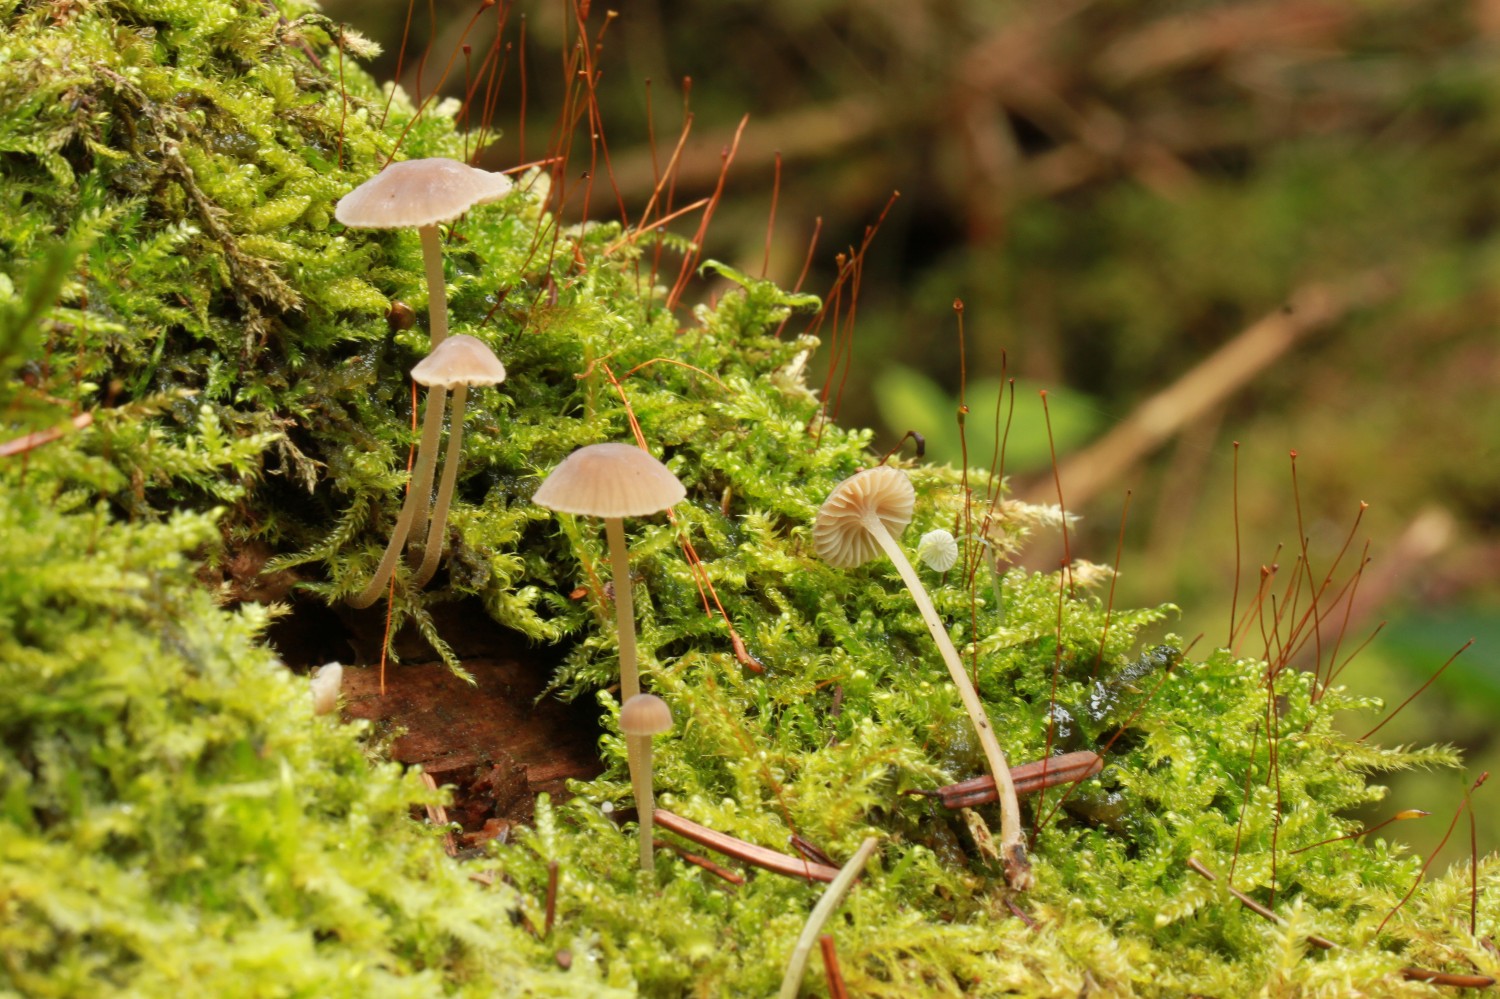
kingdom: Fungi
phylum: Basidiomycota
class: Agaricomycetes
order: Agaricales
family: Porotheleaceae
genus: Phloeomana
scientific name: Phloeomana clavata
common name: brunbladet huesvamp
